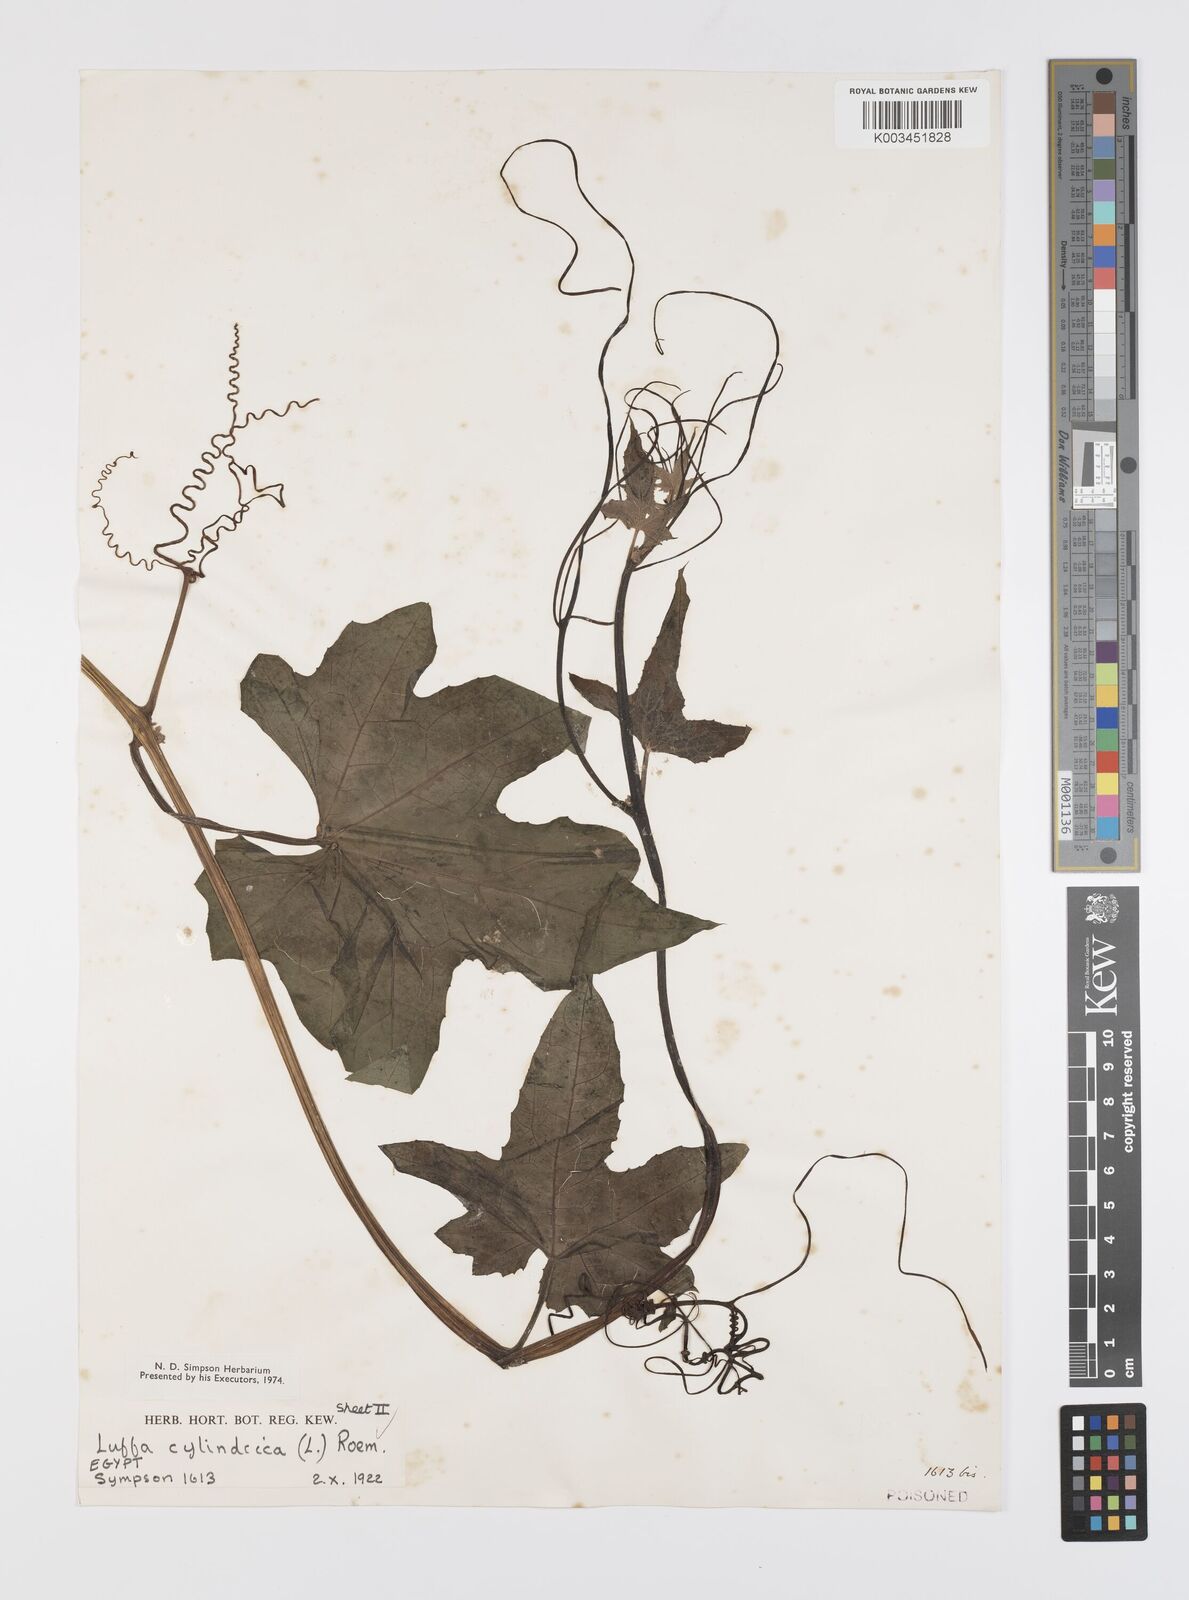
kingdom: Plantae
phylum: Tracheophyta
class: Magnoliopsida
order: Cucurbitales
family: Cucurbitaceae
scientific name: Cucurbitaceae
